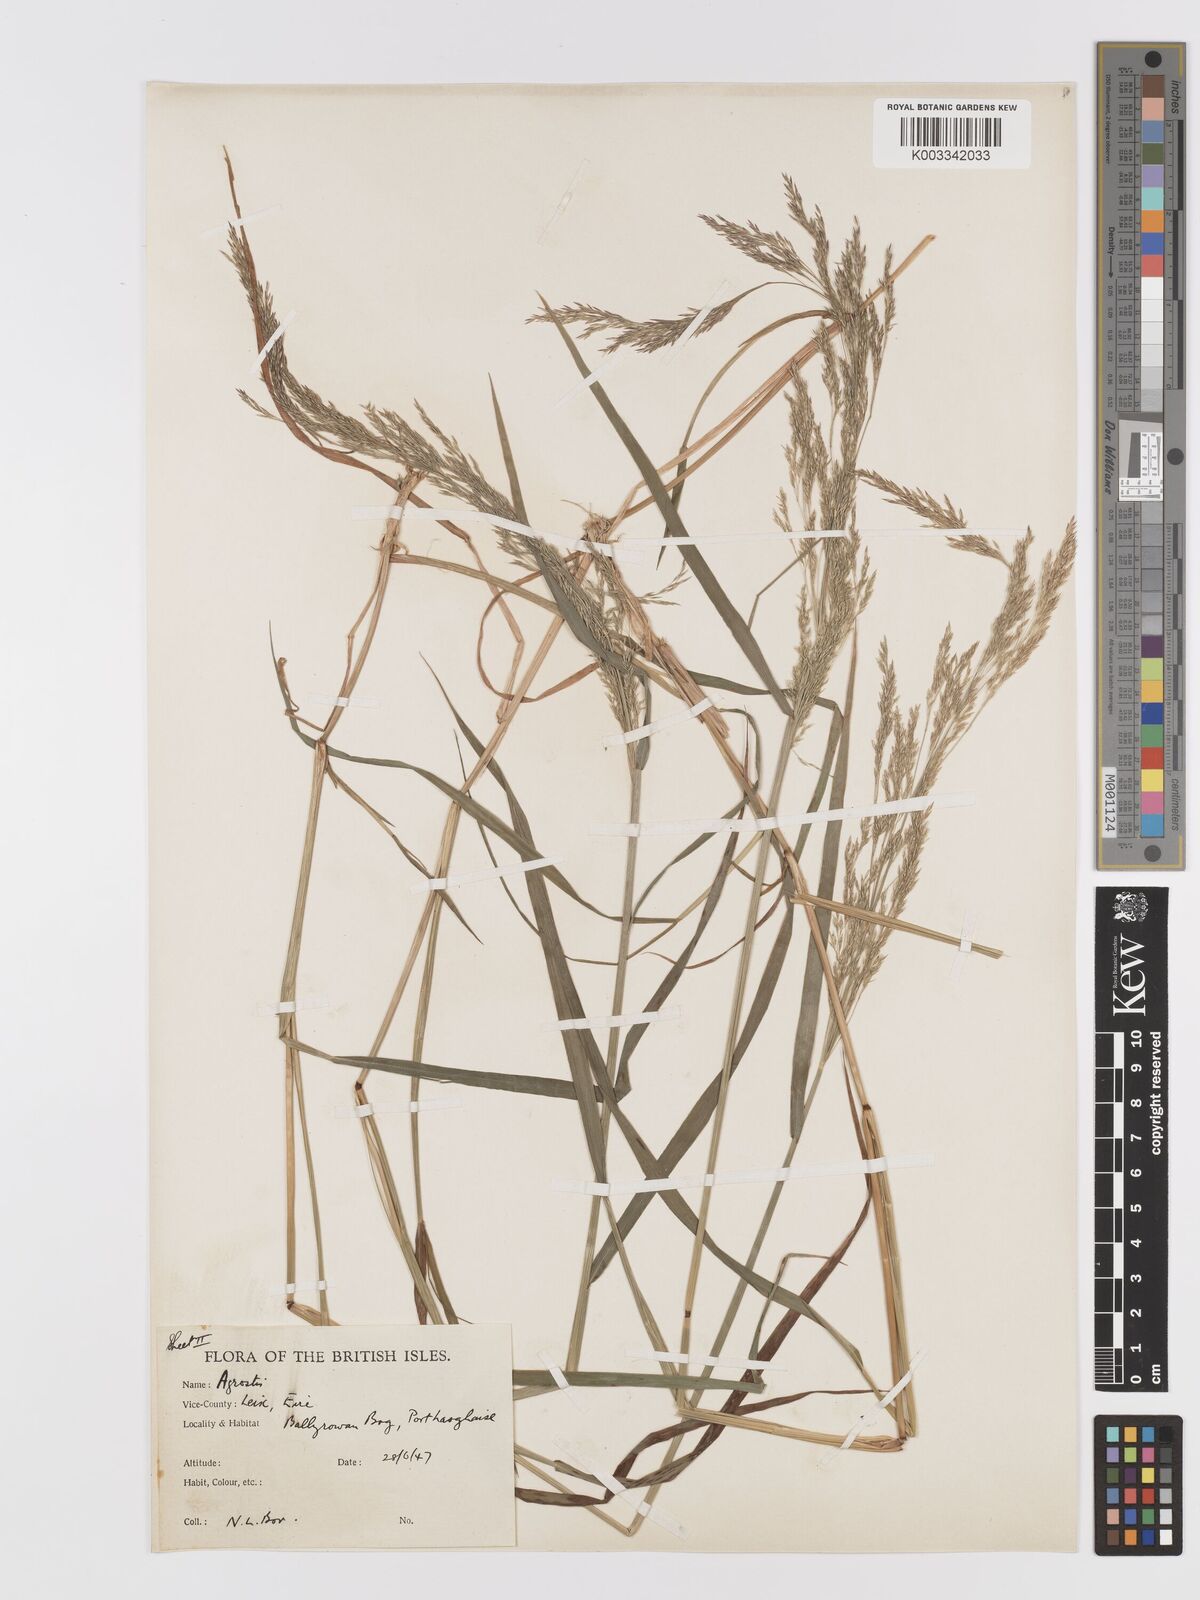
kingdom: Plantae
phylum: Tracheophyta
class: Liliopsida
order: Poales
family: Poaceae
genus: Agrostis
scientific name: Agrostis gigantea
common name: Black bent
